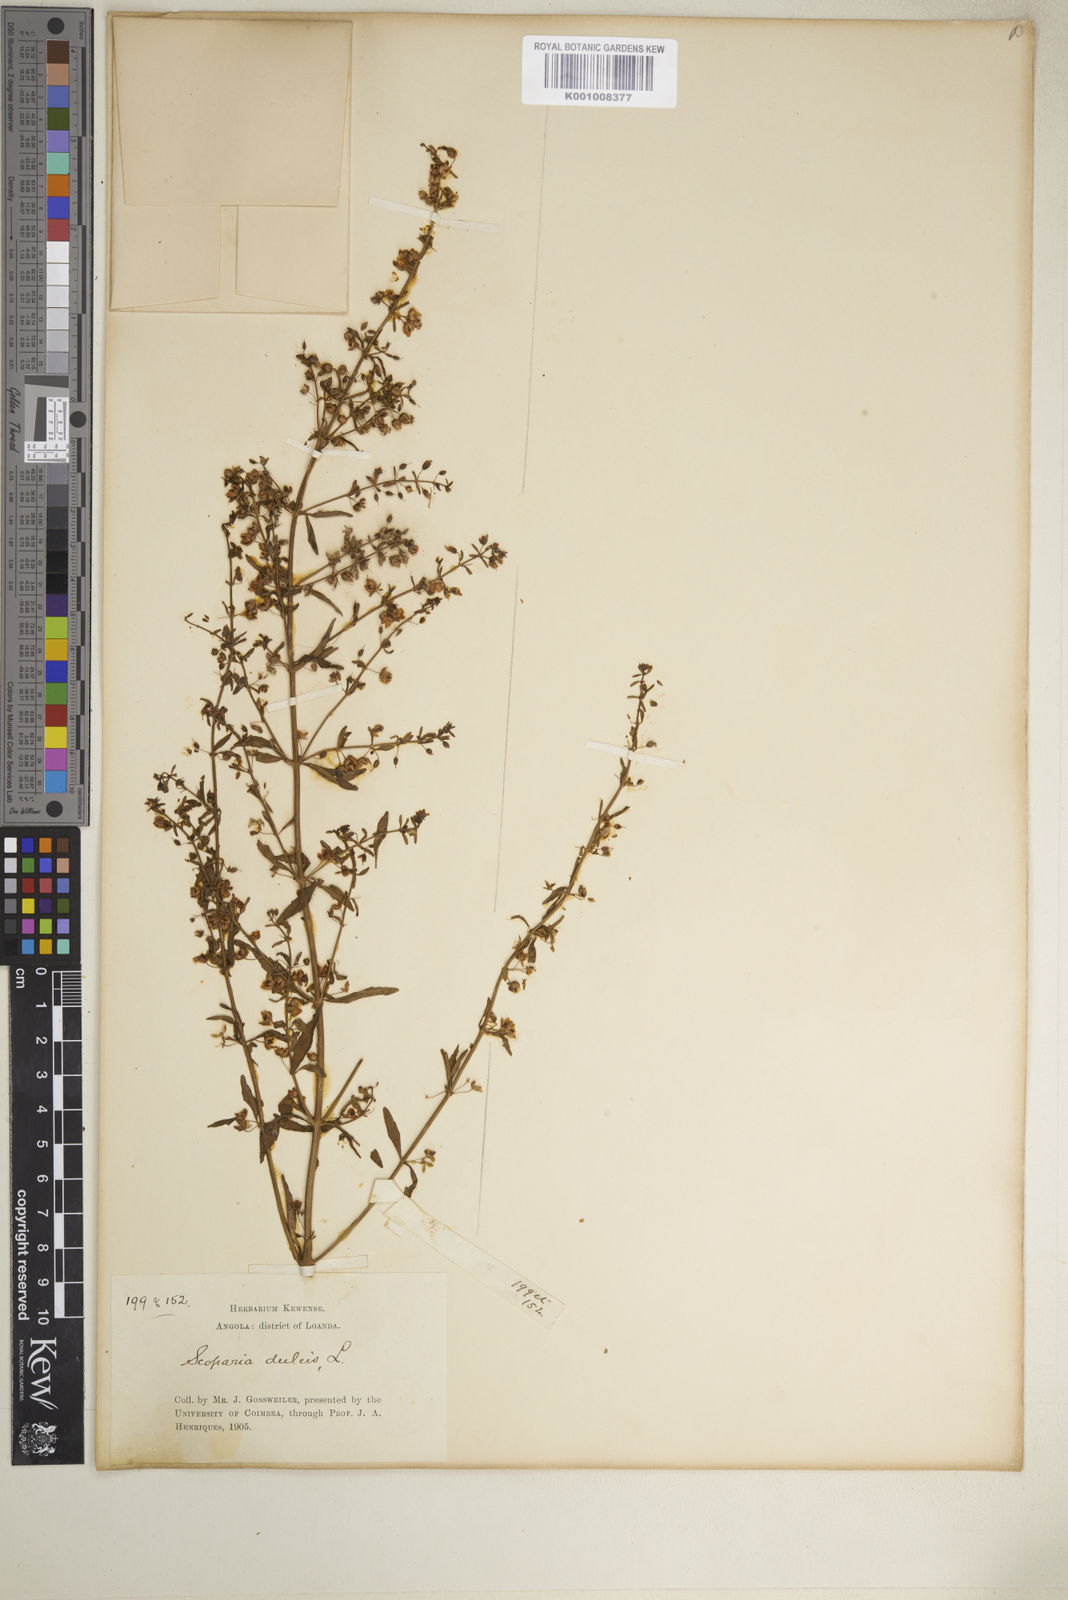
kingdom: Plantae
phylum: Tracheophyta
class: Magnoliopsida
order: Lamiales
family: Plantaginaceae
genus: Scoparia
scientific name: Scoparia dulcis
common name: Scoparia-weed
